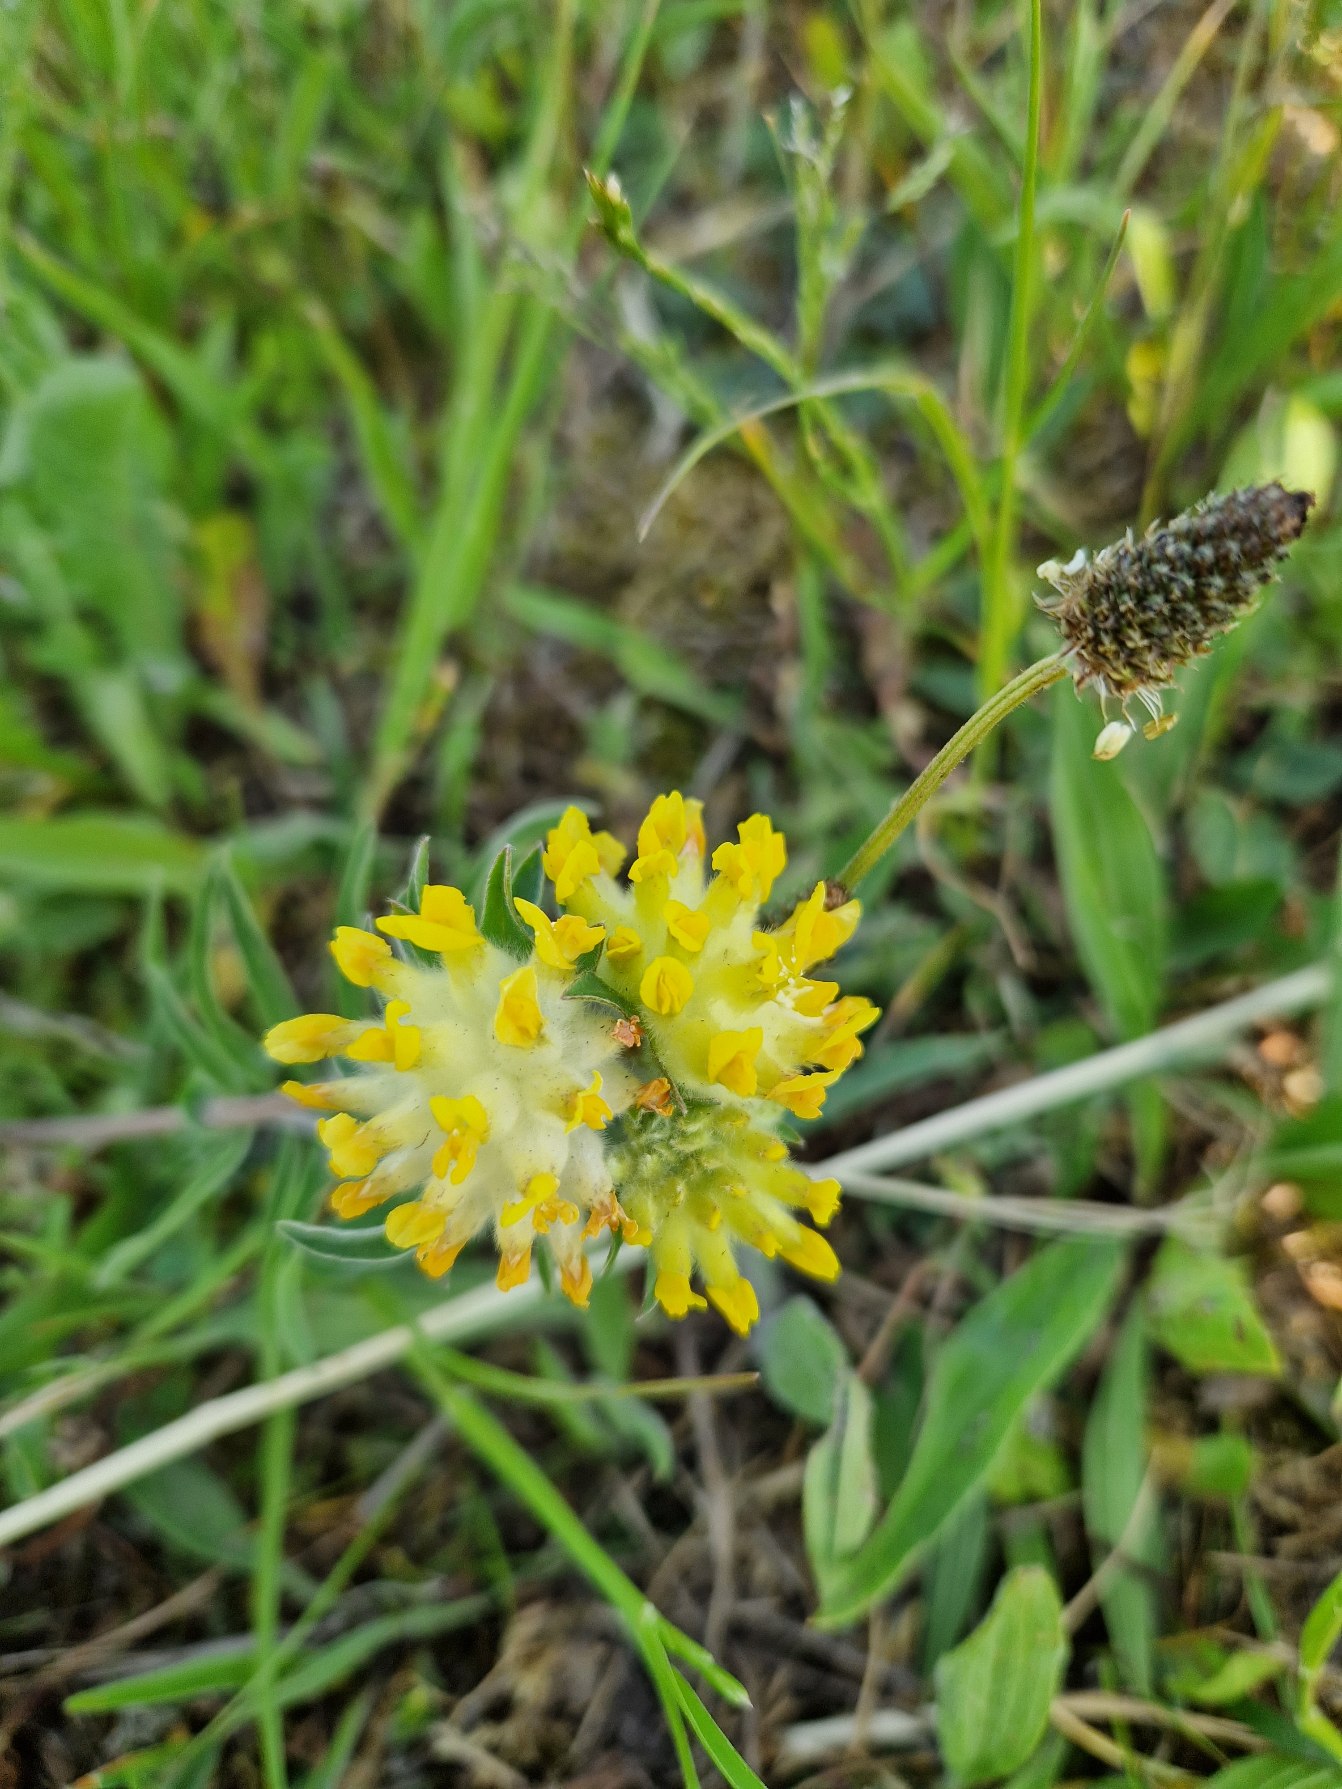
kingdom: Plantae
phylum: Tracheophyta
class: Magnoliopsida
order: Fabales
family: Fabaceae
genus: Anthyllis
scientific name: Anthyllis vulneraria
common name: Rundbælg
